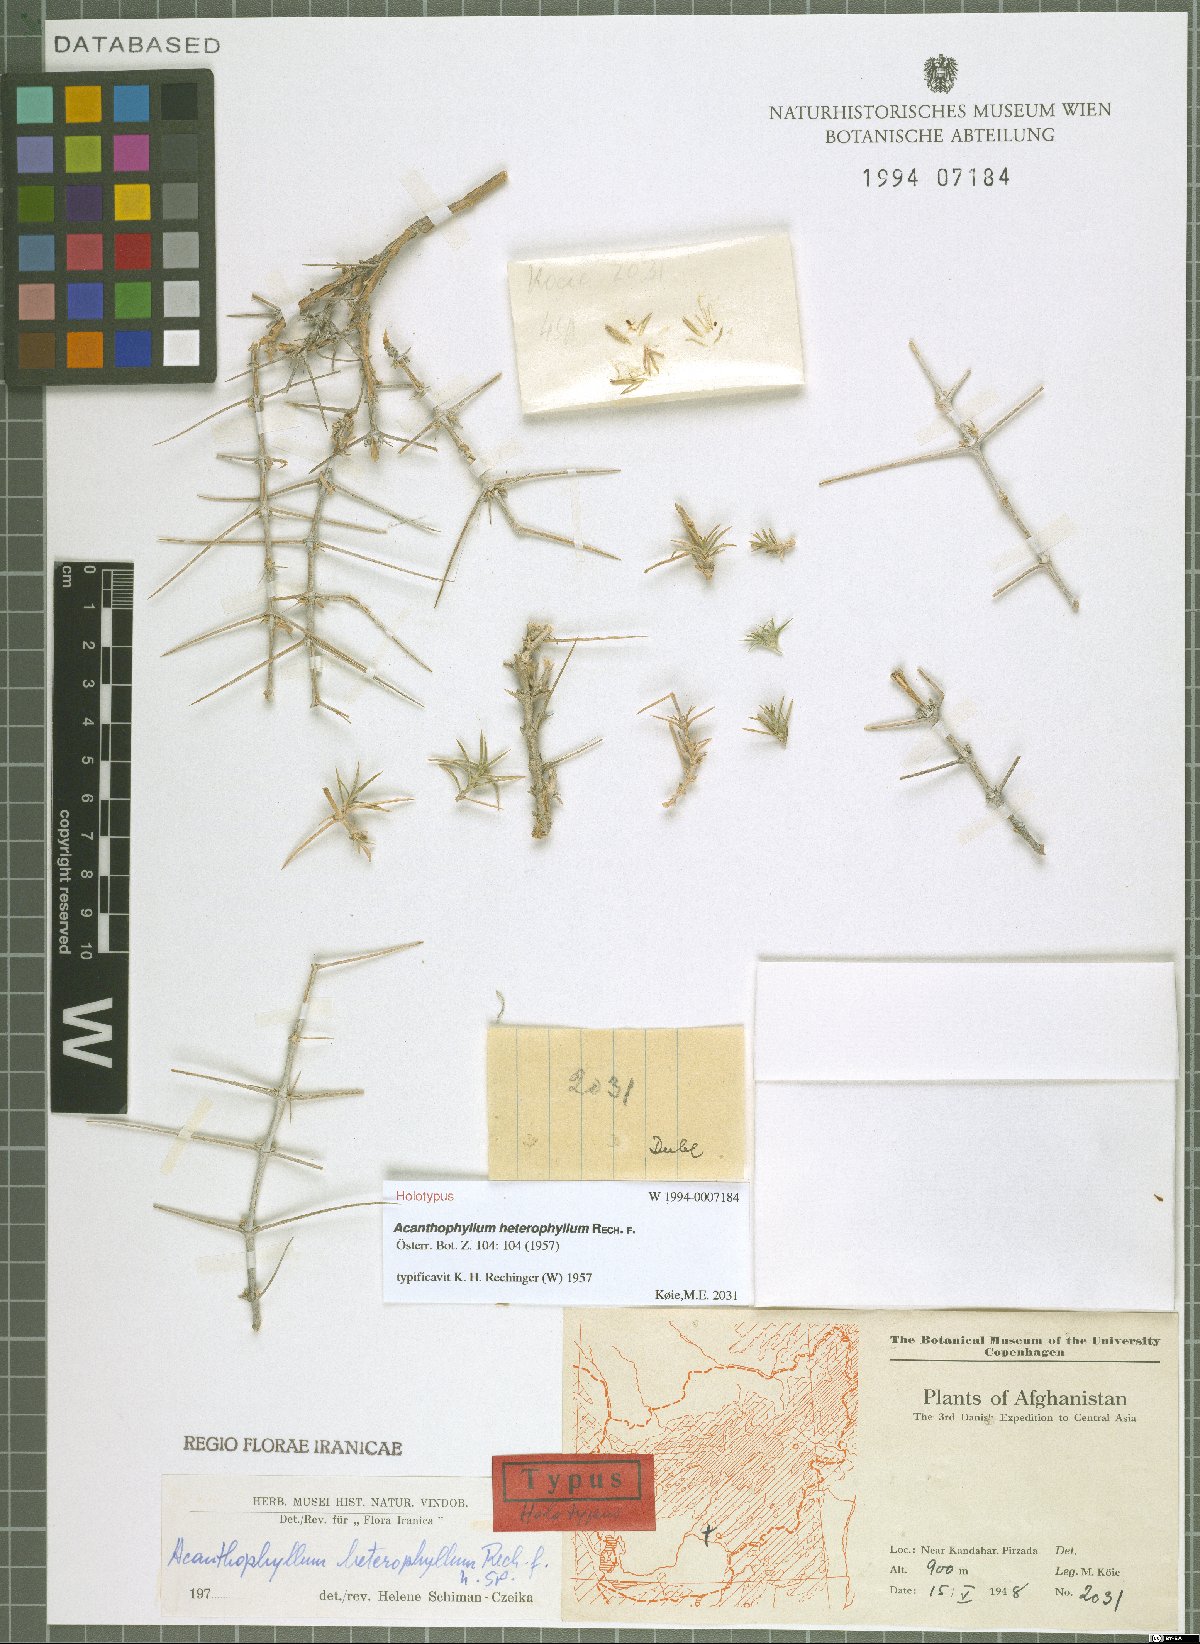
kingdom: Plantae
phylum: Tracheophyta
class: Magnoliopsida
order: Caryophyllales
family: Caryophyllaceae
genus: Acanthophyllum
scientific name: Acanthophyllum heterophyllum
